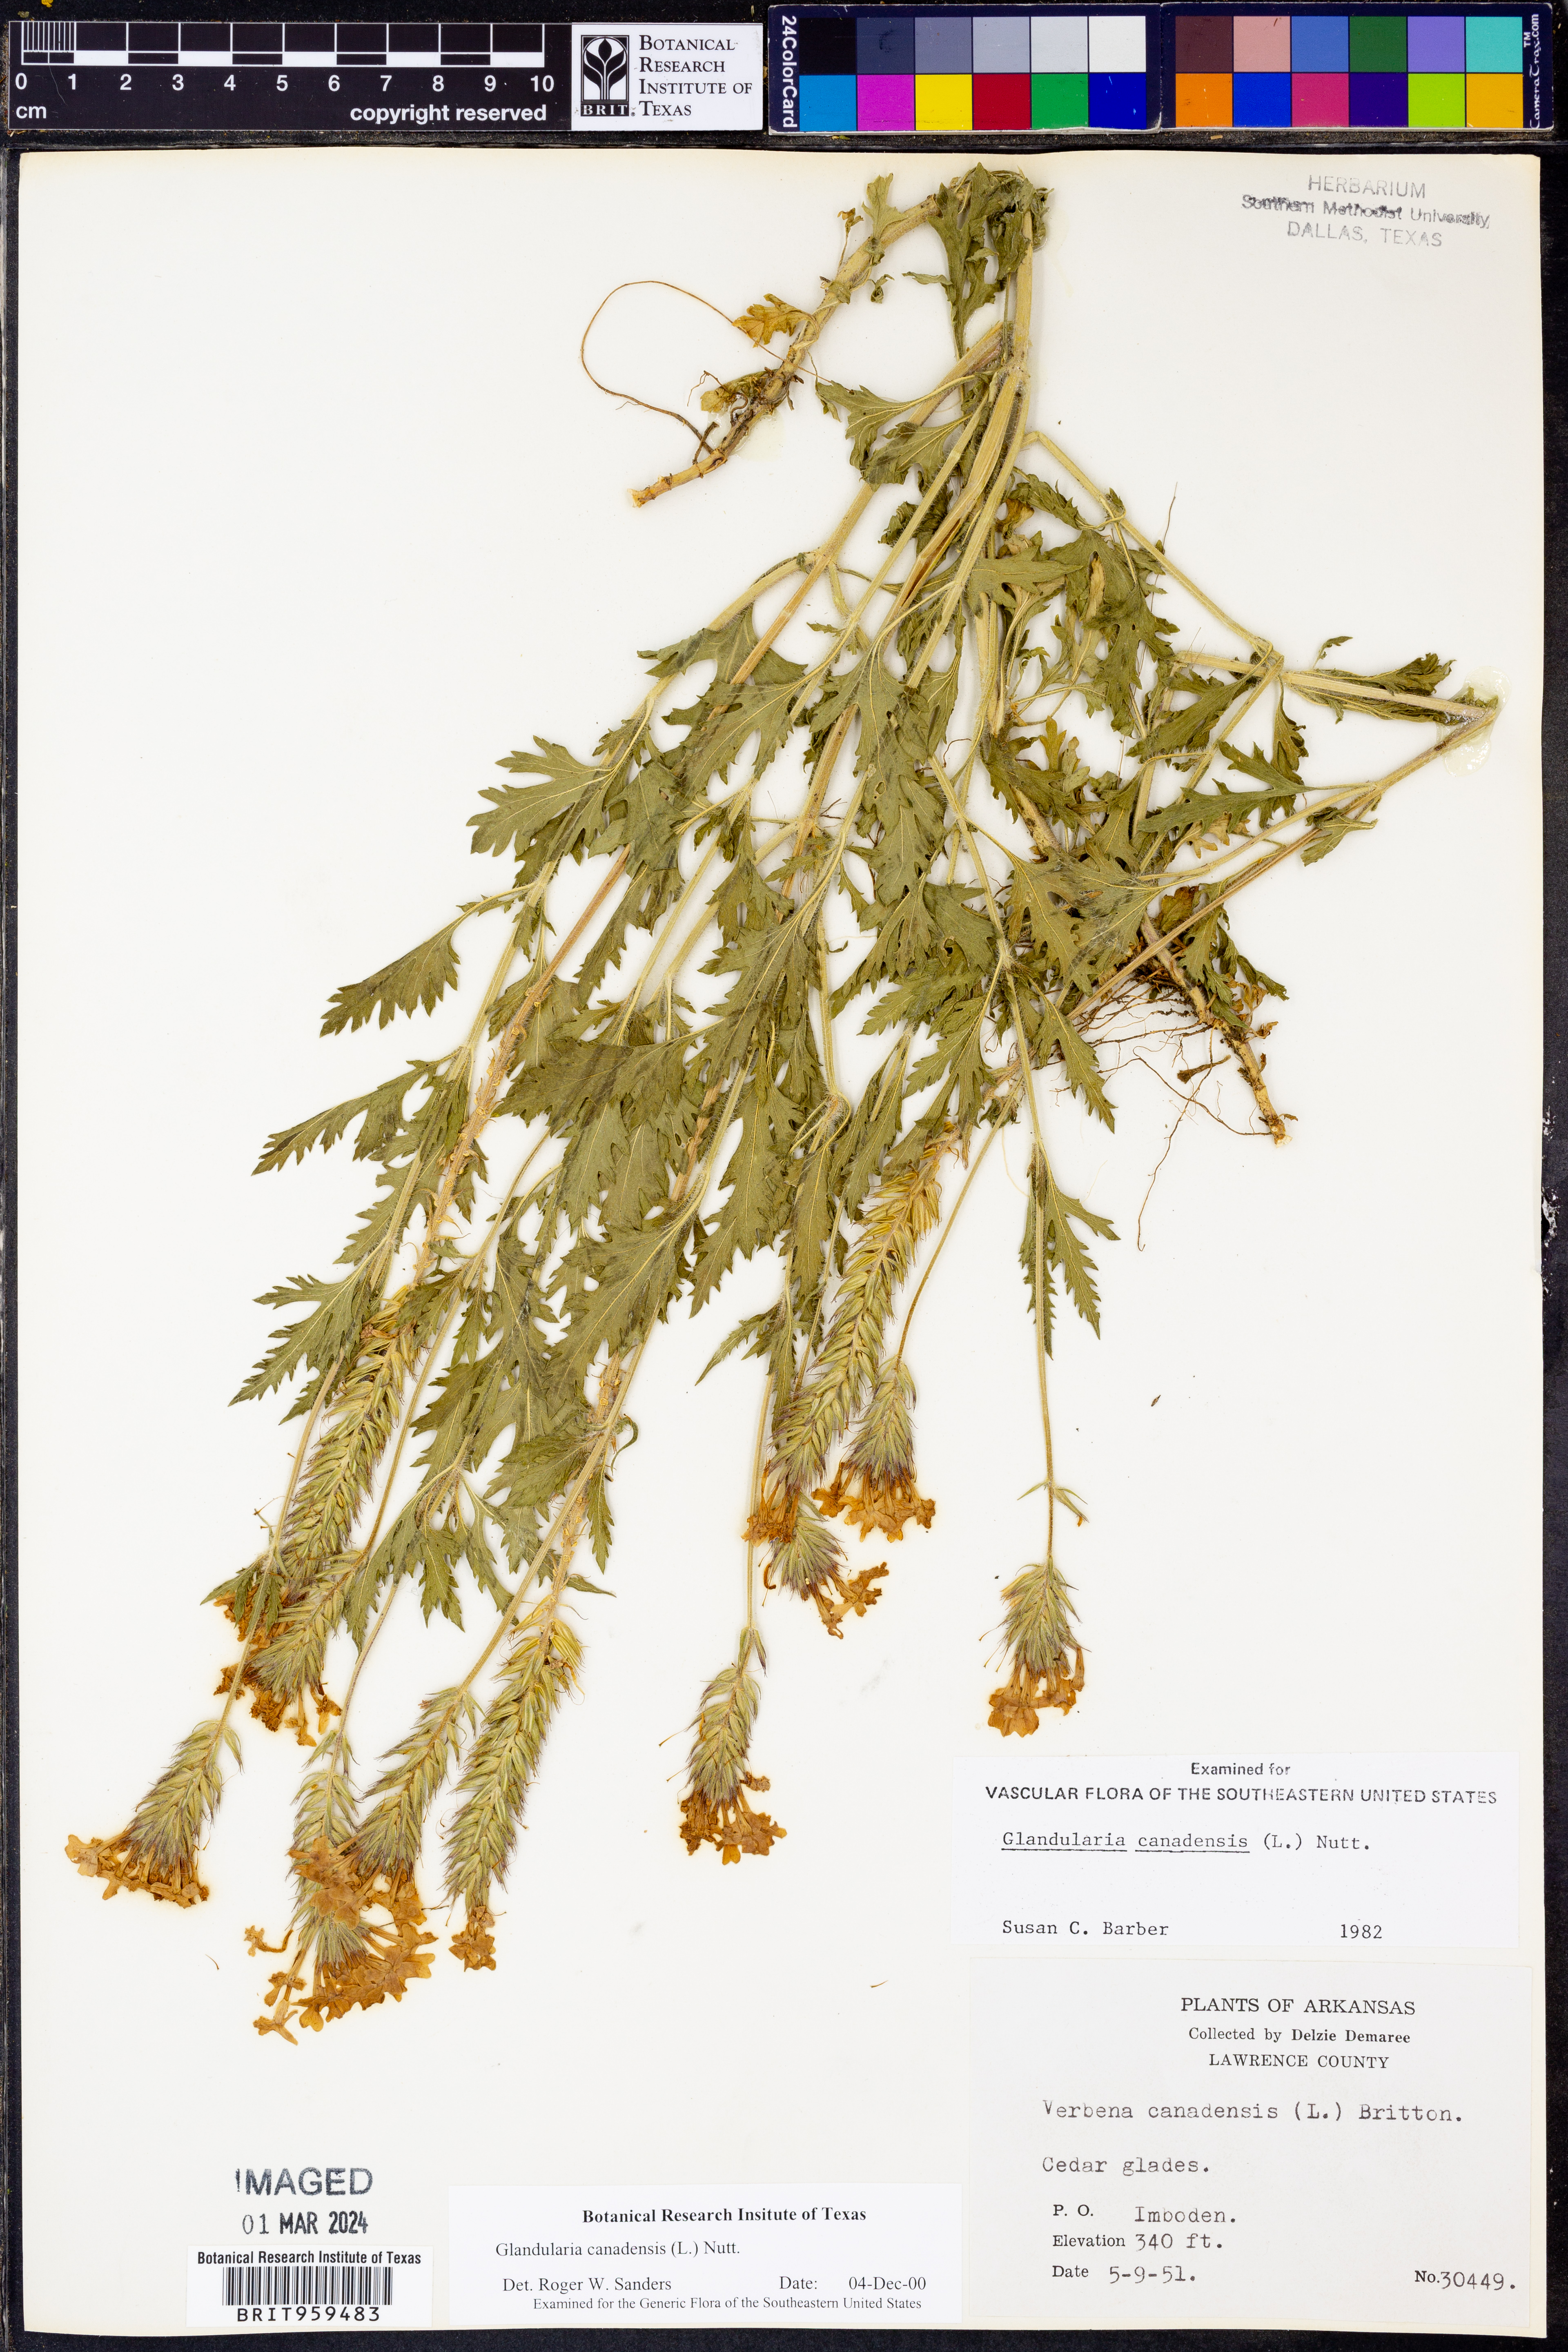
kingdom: Plantae
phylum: Tracheophyta
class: Magnoliopsida
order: Lamiales
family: Verbenaceae
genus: Verbena
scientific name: Verbena canadensis
